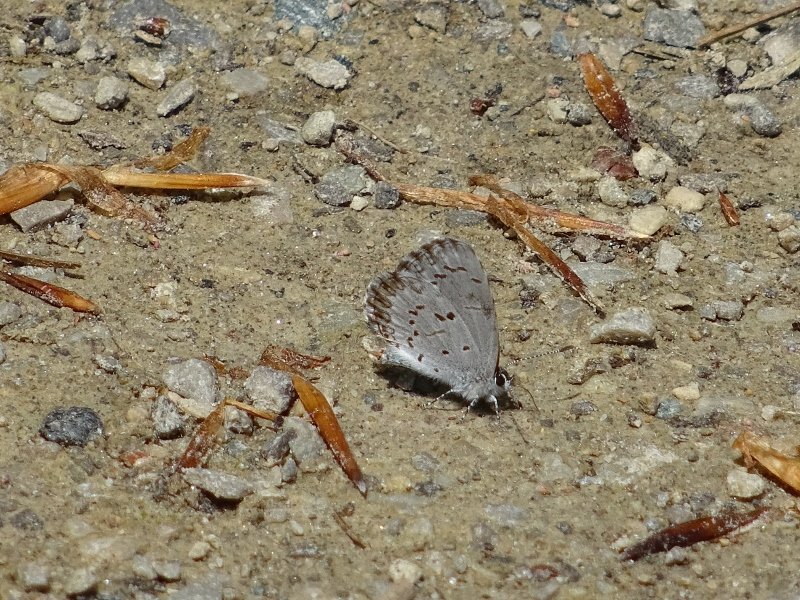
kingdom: Animalia
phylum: Arthropoda
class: Insecta
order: Lepidoptera
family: Lycaenidae
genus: Celastrina
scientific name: Celastrina
